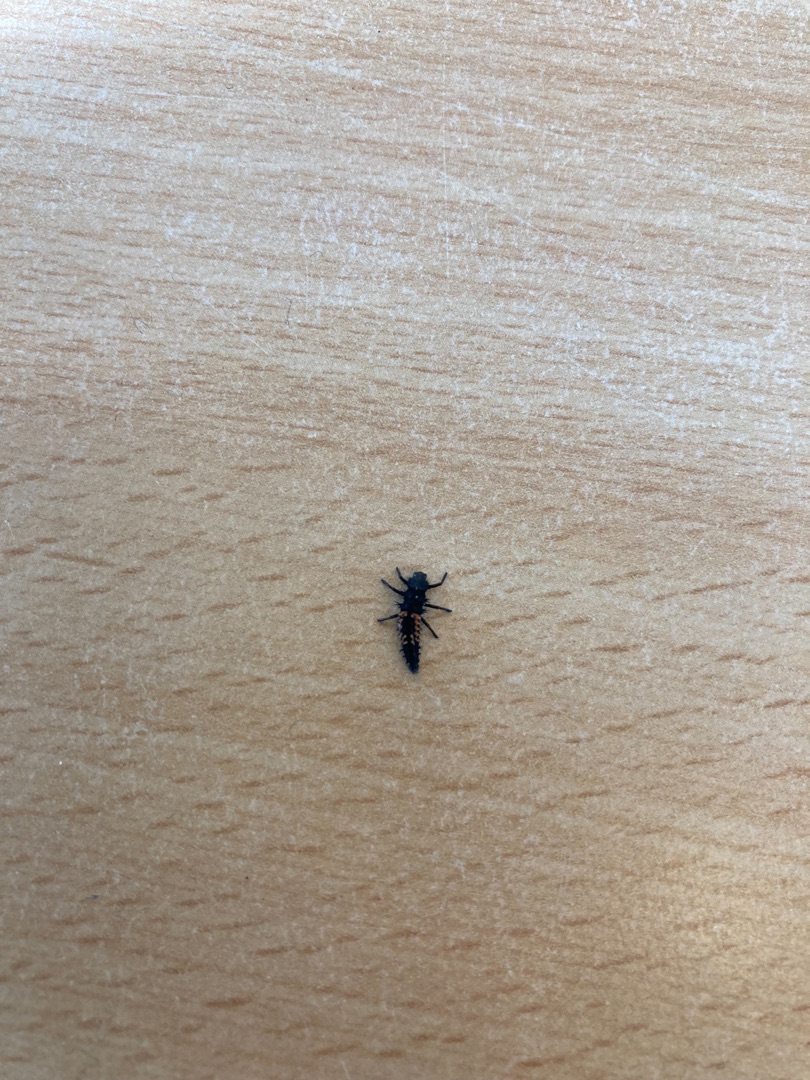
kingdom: Animalia
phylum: Arthropoda
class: Insecta
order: Coleoptera
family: Coccinellidae
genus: Harmonia
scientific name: Harmonia axyridis
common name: Harlekinmariehøne
